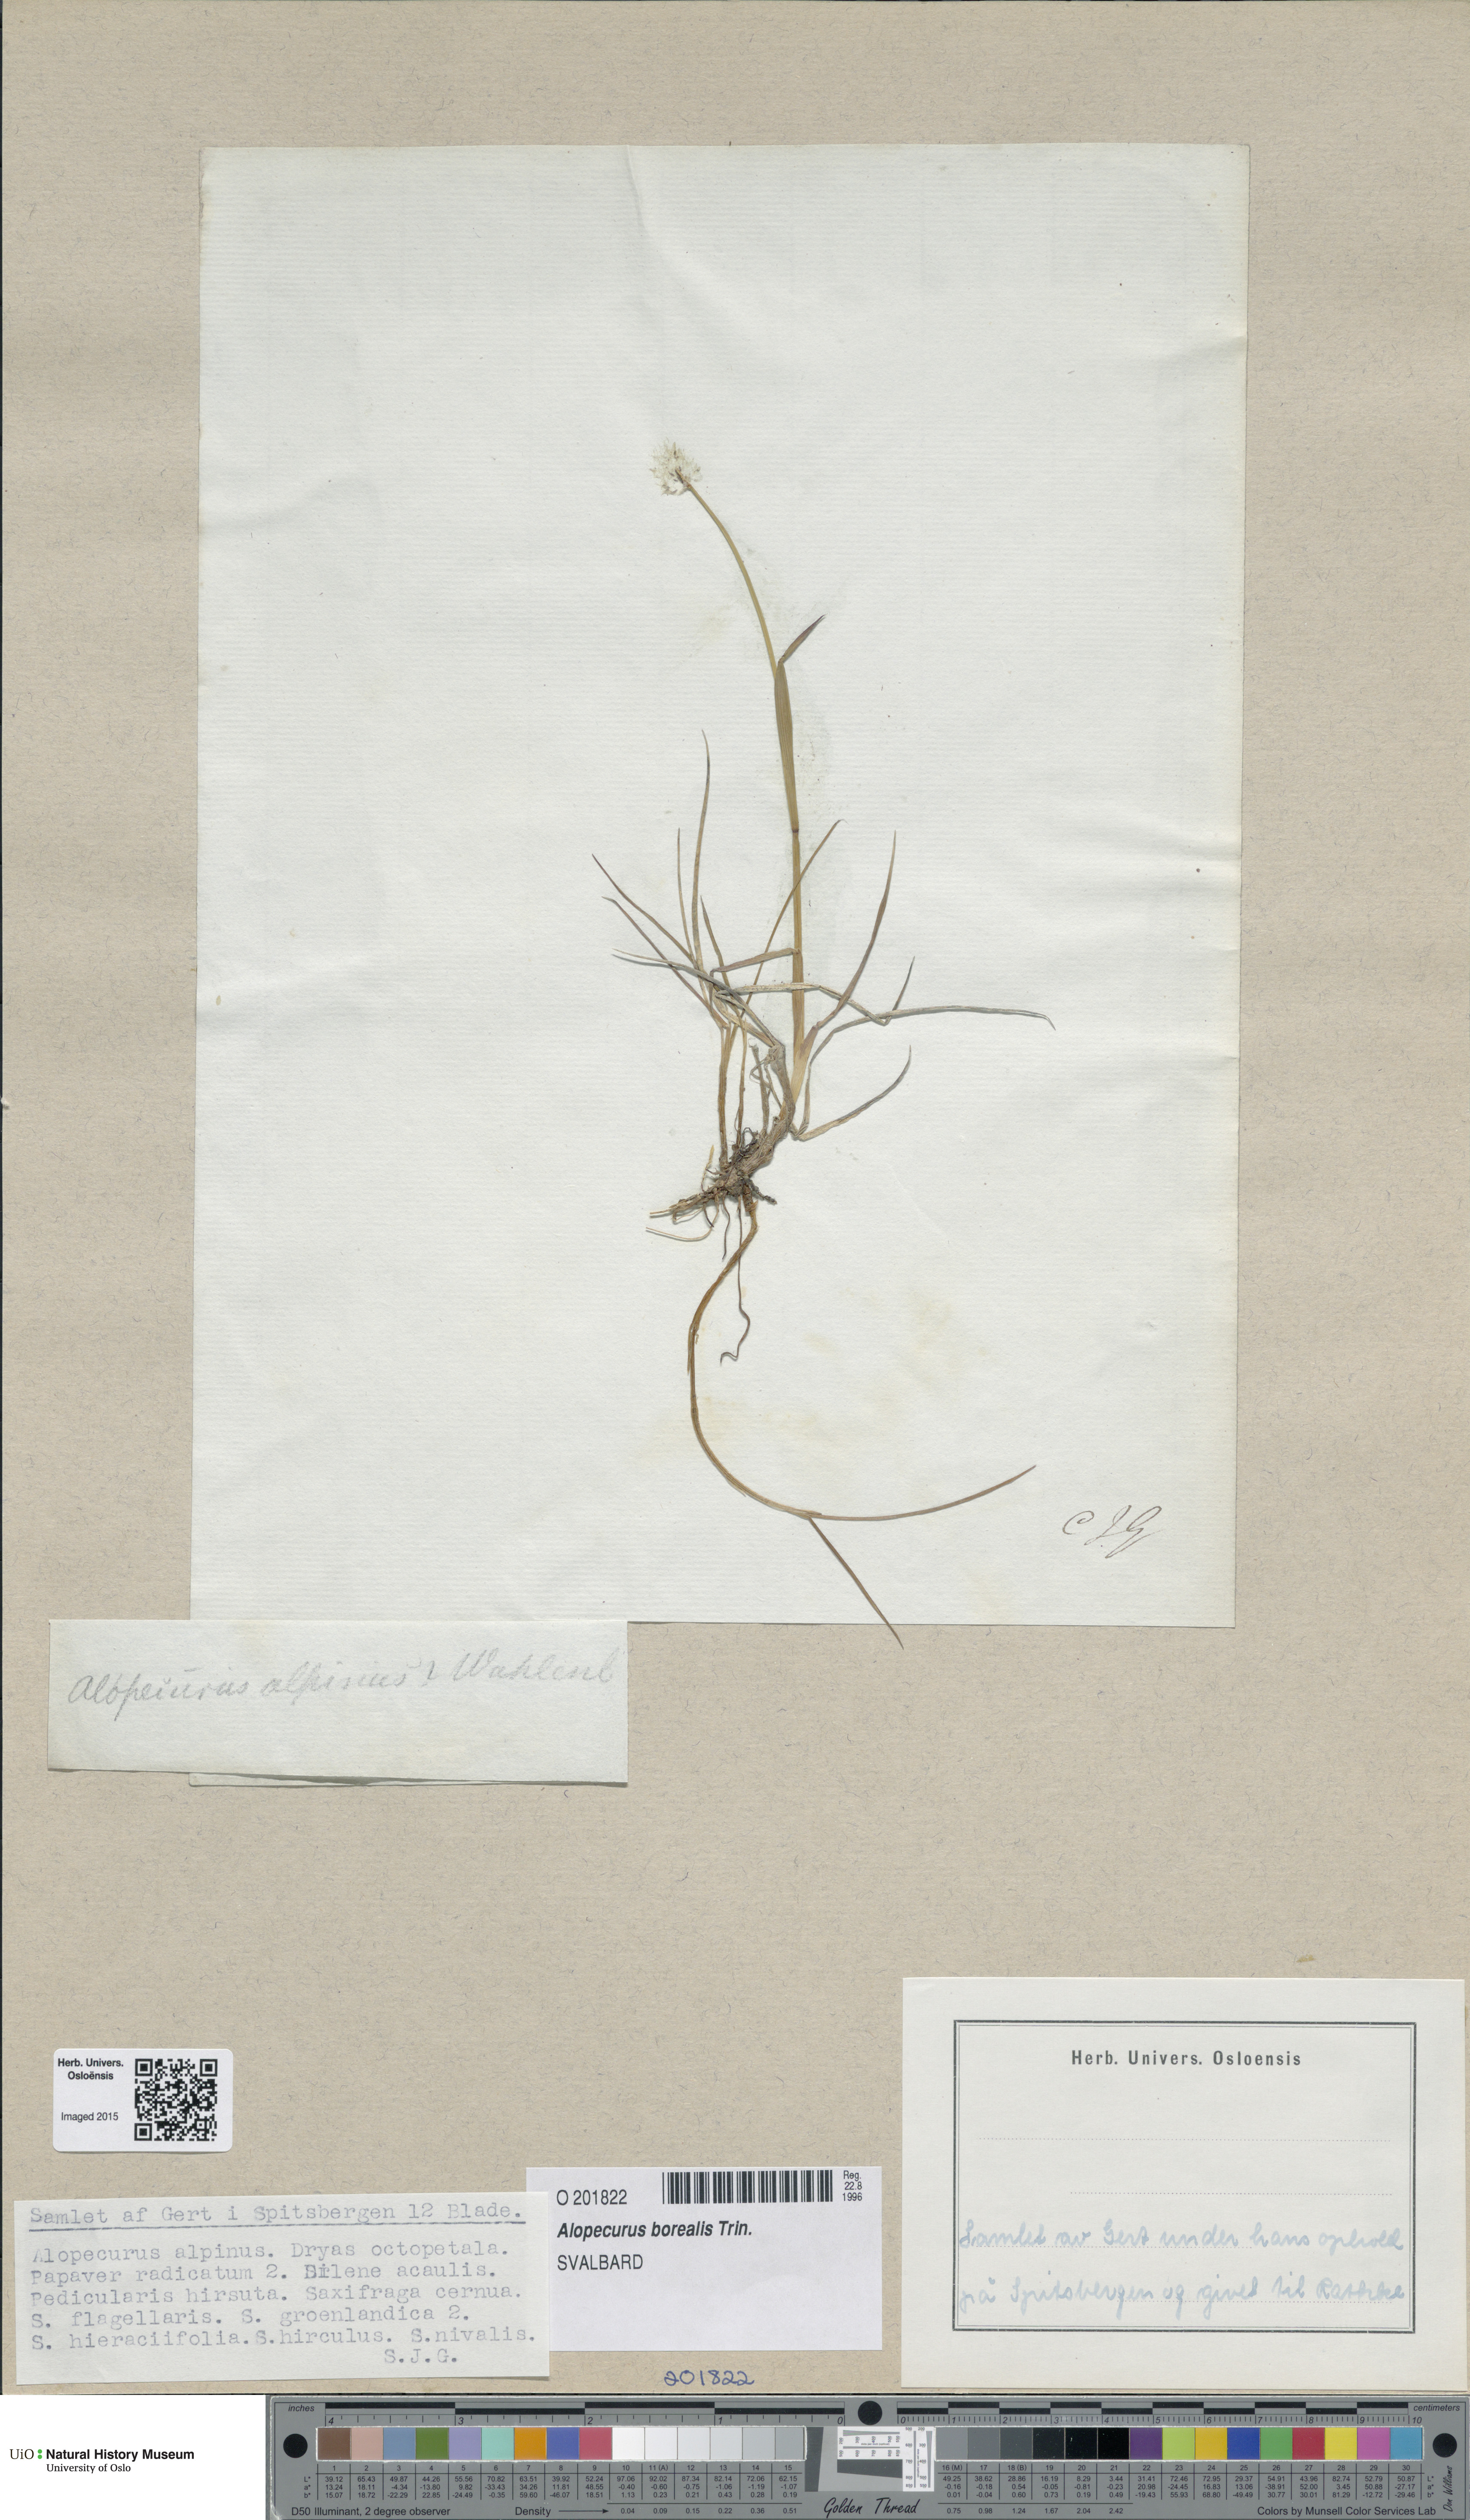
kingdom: Plantae
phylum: Tracheophyta
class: Liliopsida
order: Poales
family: Poaceae
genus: Alopecurus
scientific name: Alopecurus magellanicus
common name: Alpine foxtail
